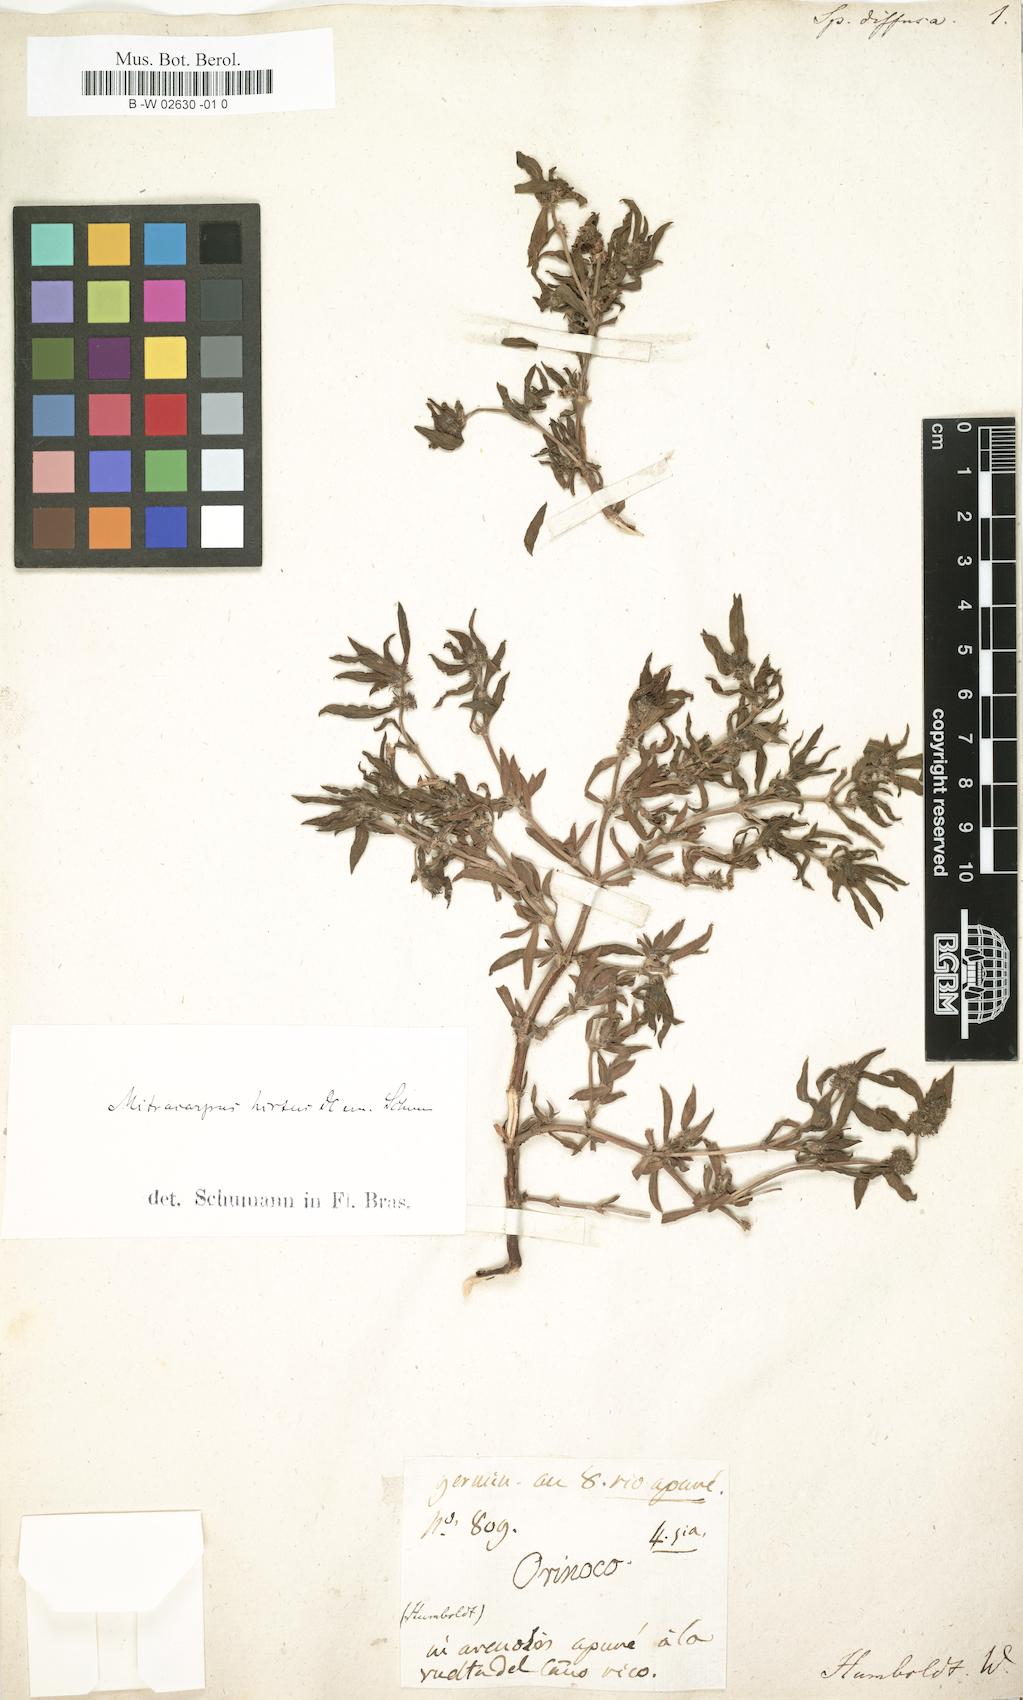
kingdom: Plantae
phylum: Tracheophyta
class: Magnoliopsida
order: Gentianales
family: Rubiaceae
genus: Mitracarpus
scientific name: Mitracarpus hirtus
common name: Tropical girdlepod
